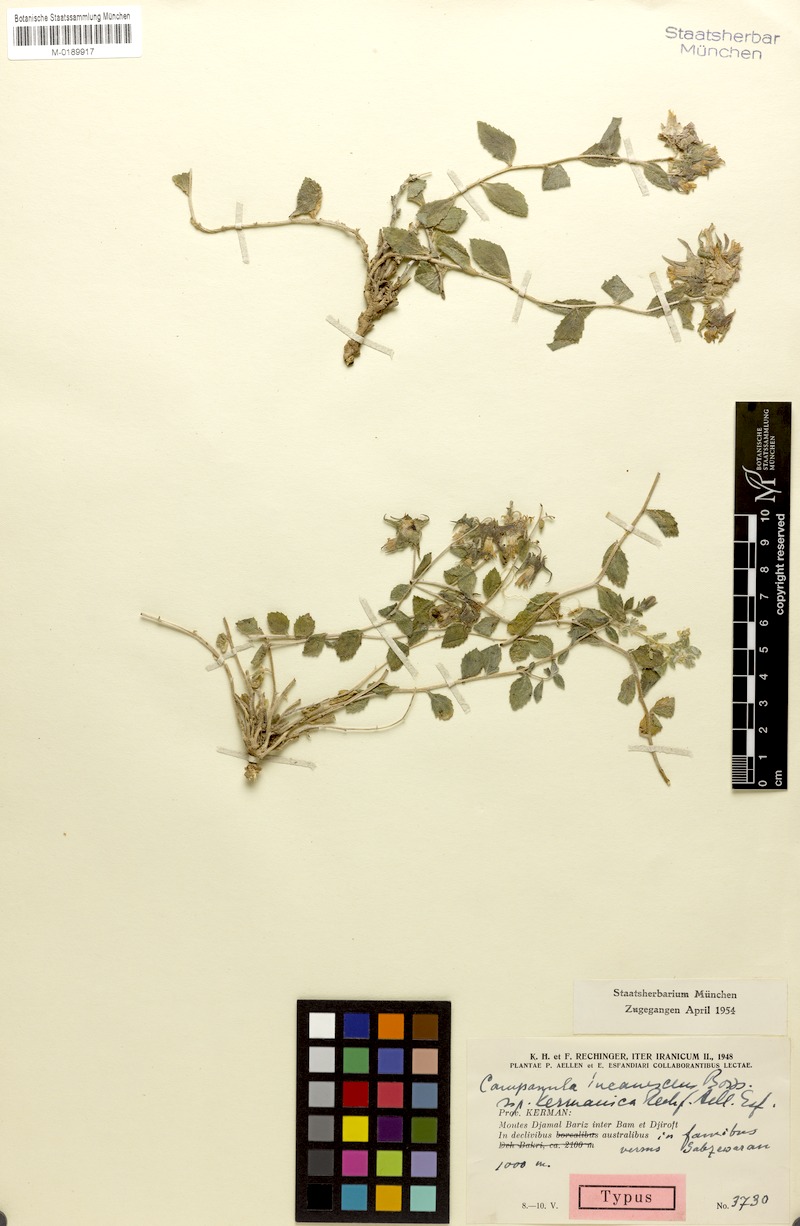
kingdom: Plantae
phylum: Tracheophyta
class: Magnoliopsida
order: Asterales
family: Campanulaceae
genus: Campanula
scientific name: Campanula kermanica
